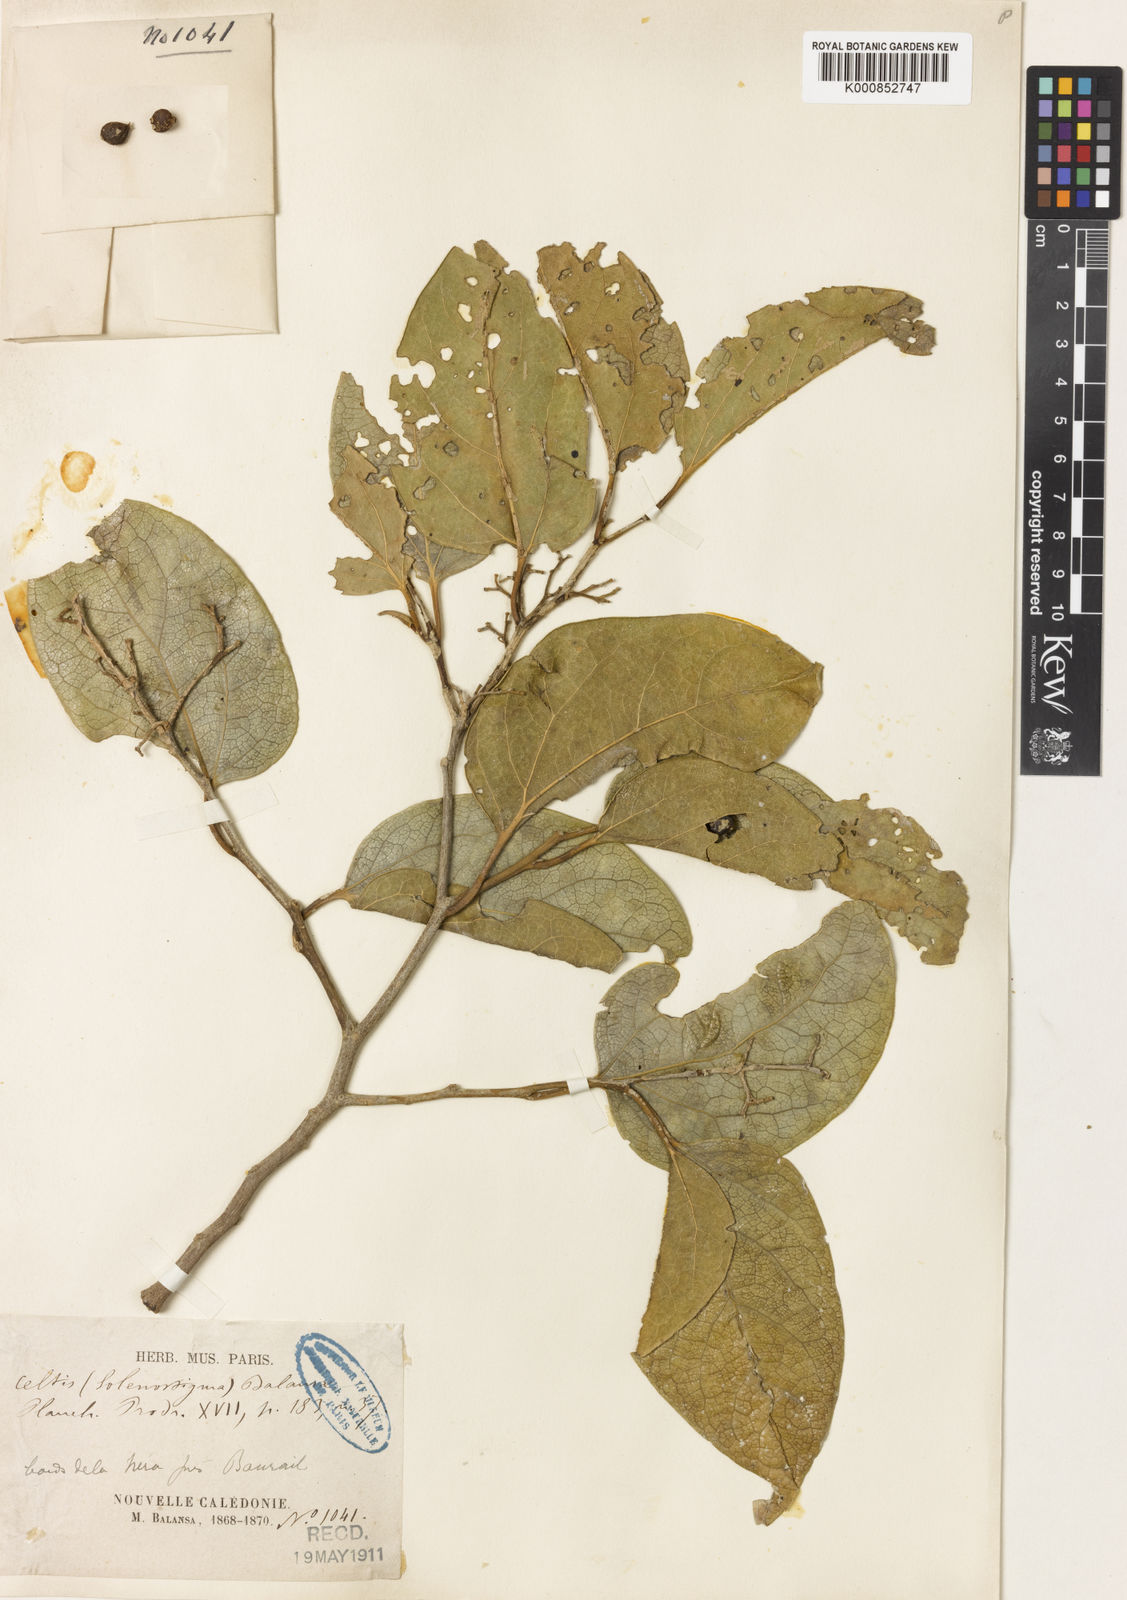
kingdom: Plantae
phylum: Tracheophyta
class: Magnoliopsida
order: Rosales
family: Cannabaceae
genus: Celtis
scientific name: Celtis balansae
